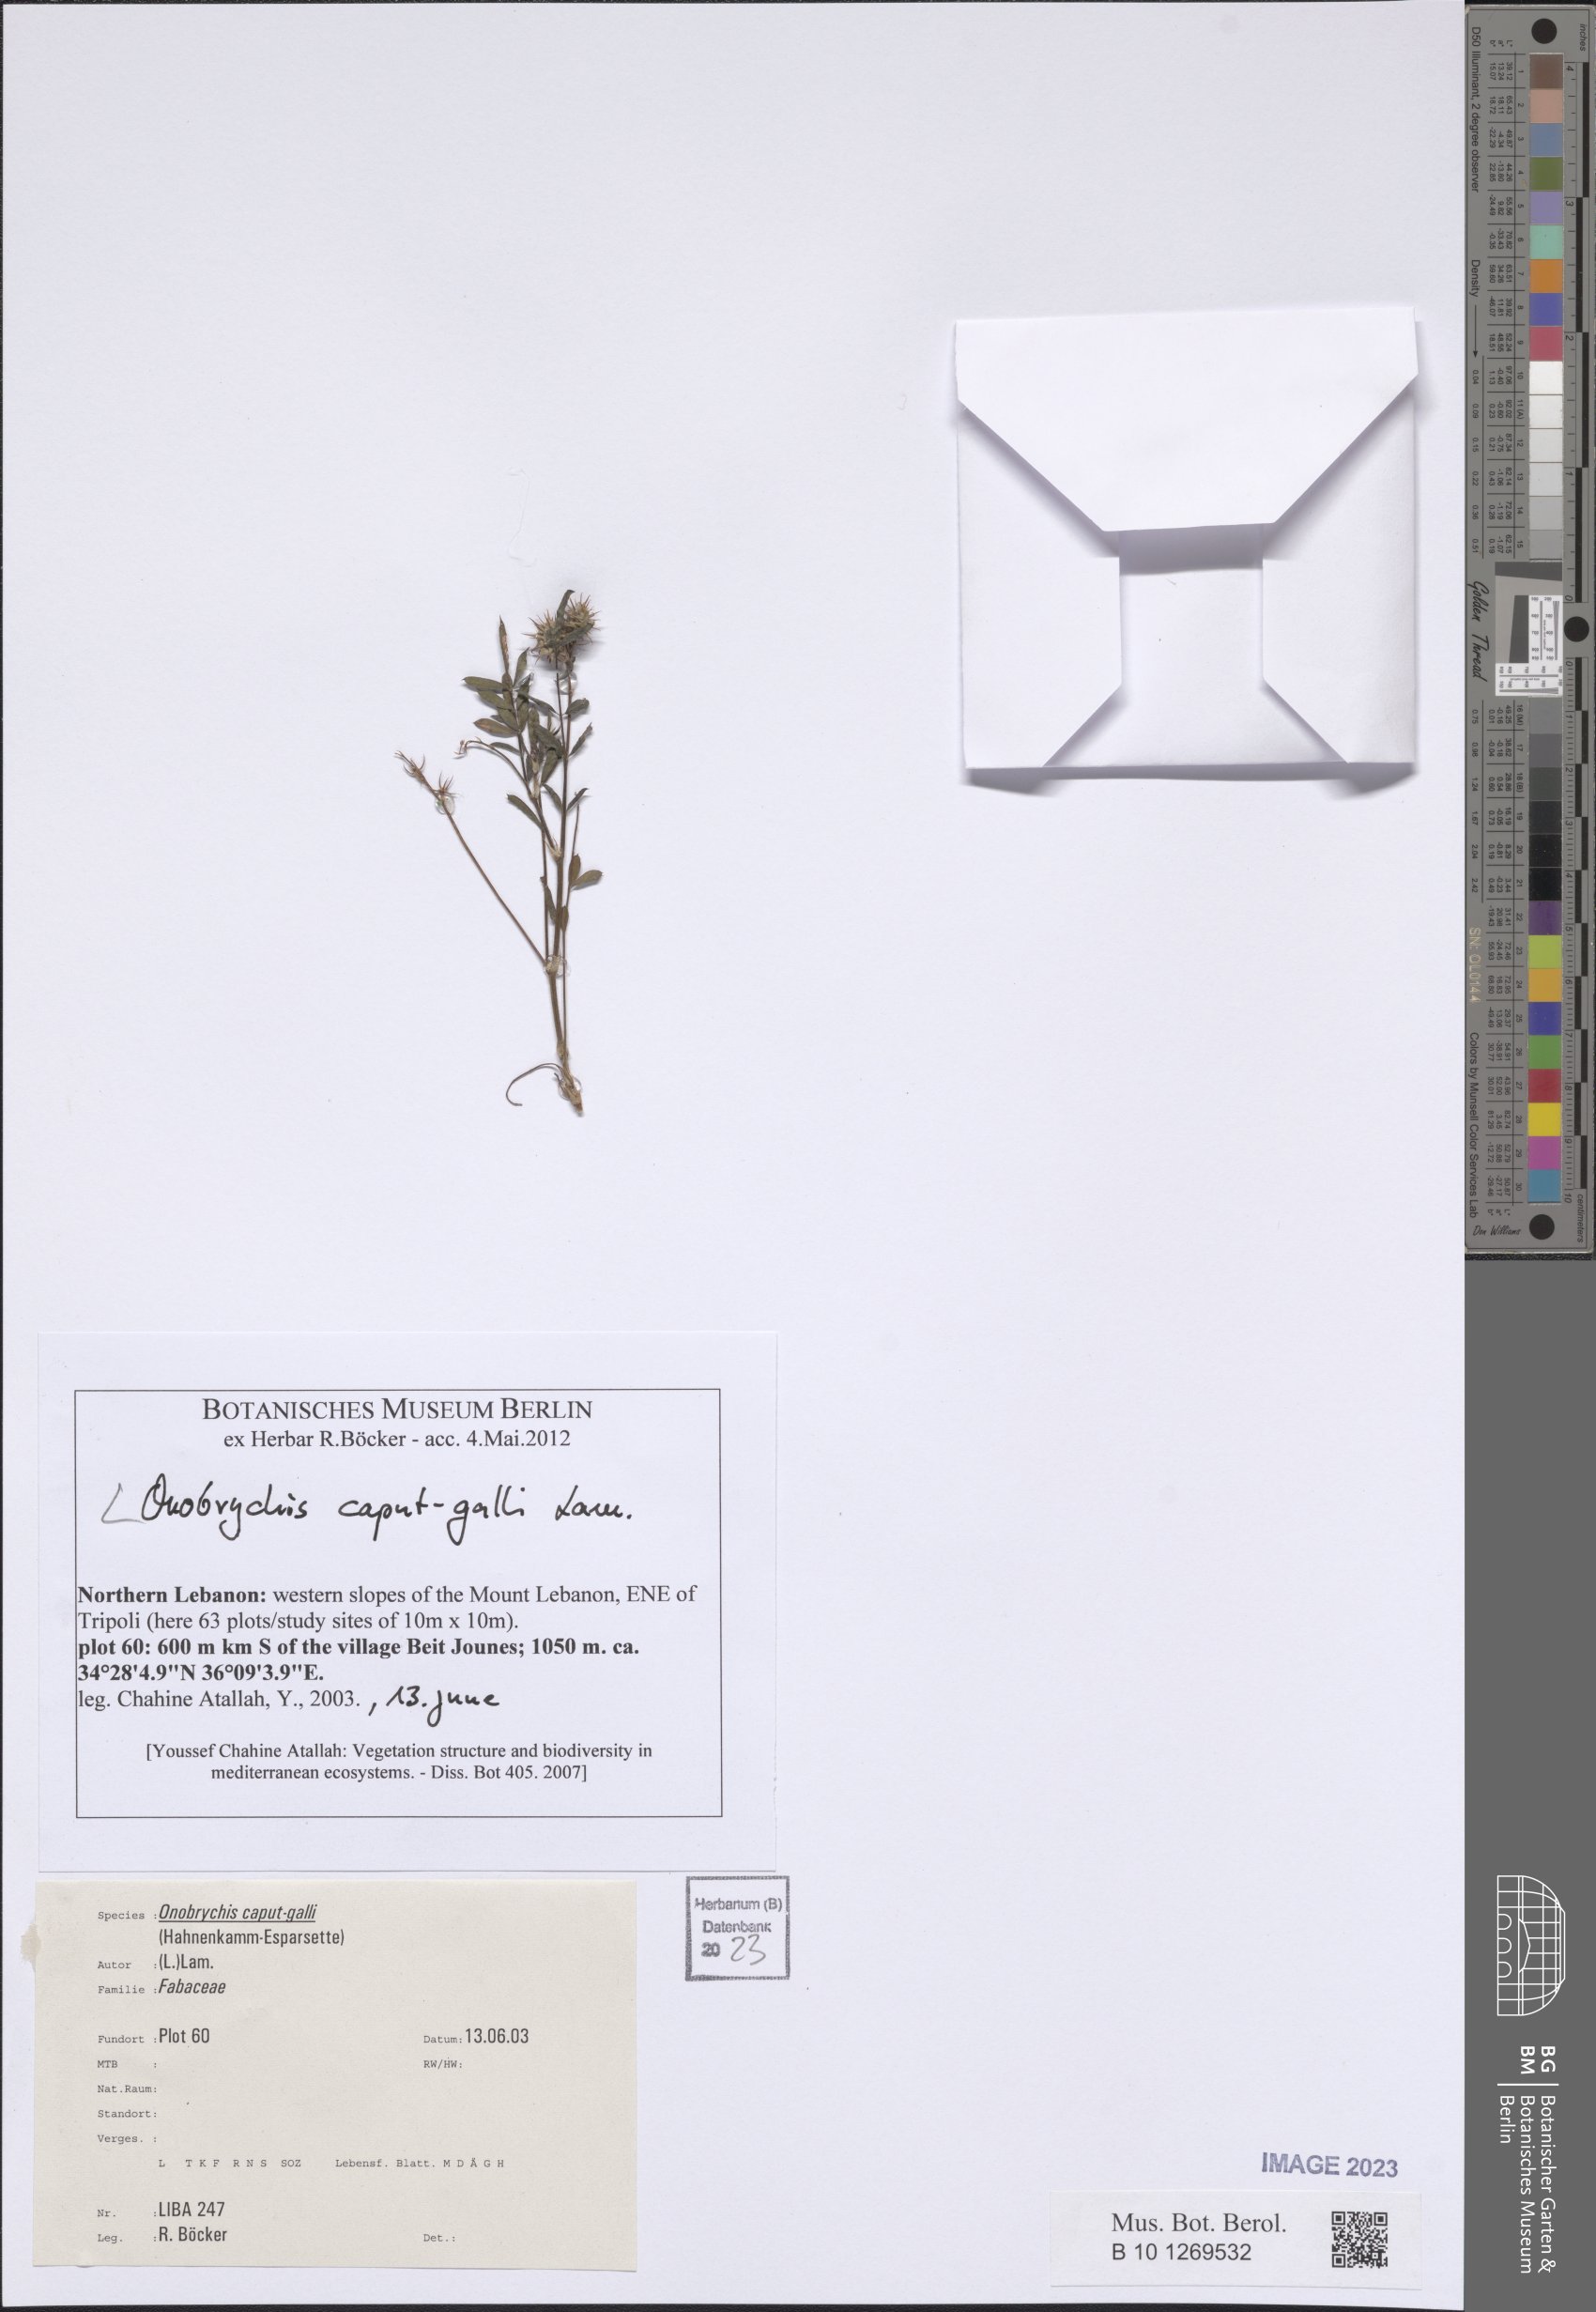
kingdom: Plantae
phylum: Tracheophyta
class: Magnoliopsida
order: Fabales
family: Fabaceae
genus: Onobrychis
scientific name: Onobrychis caput-galli
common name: Cockscomb sainfoin
